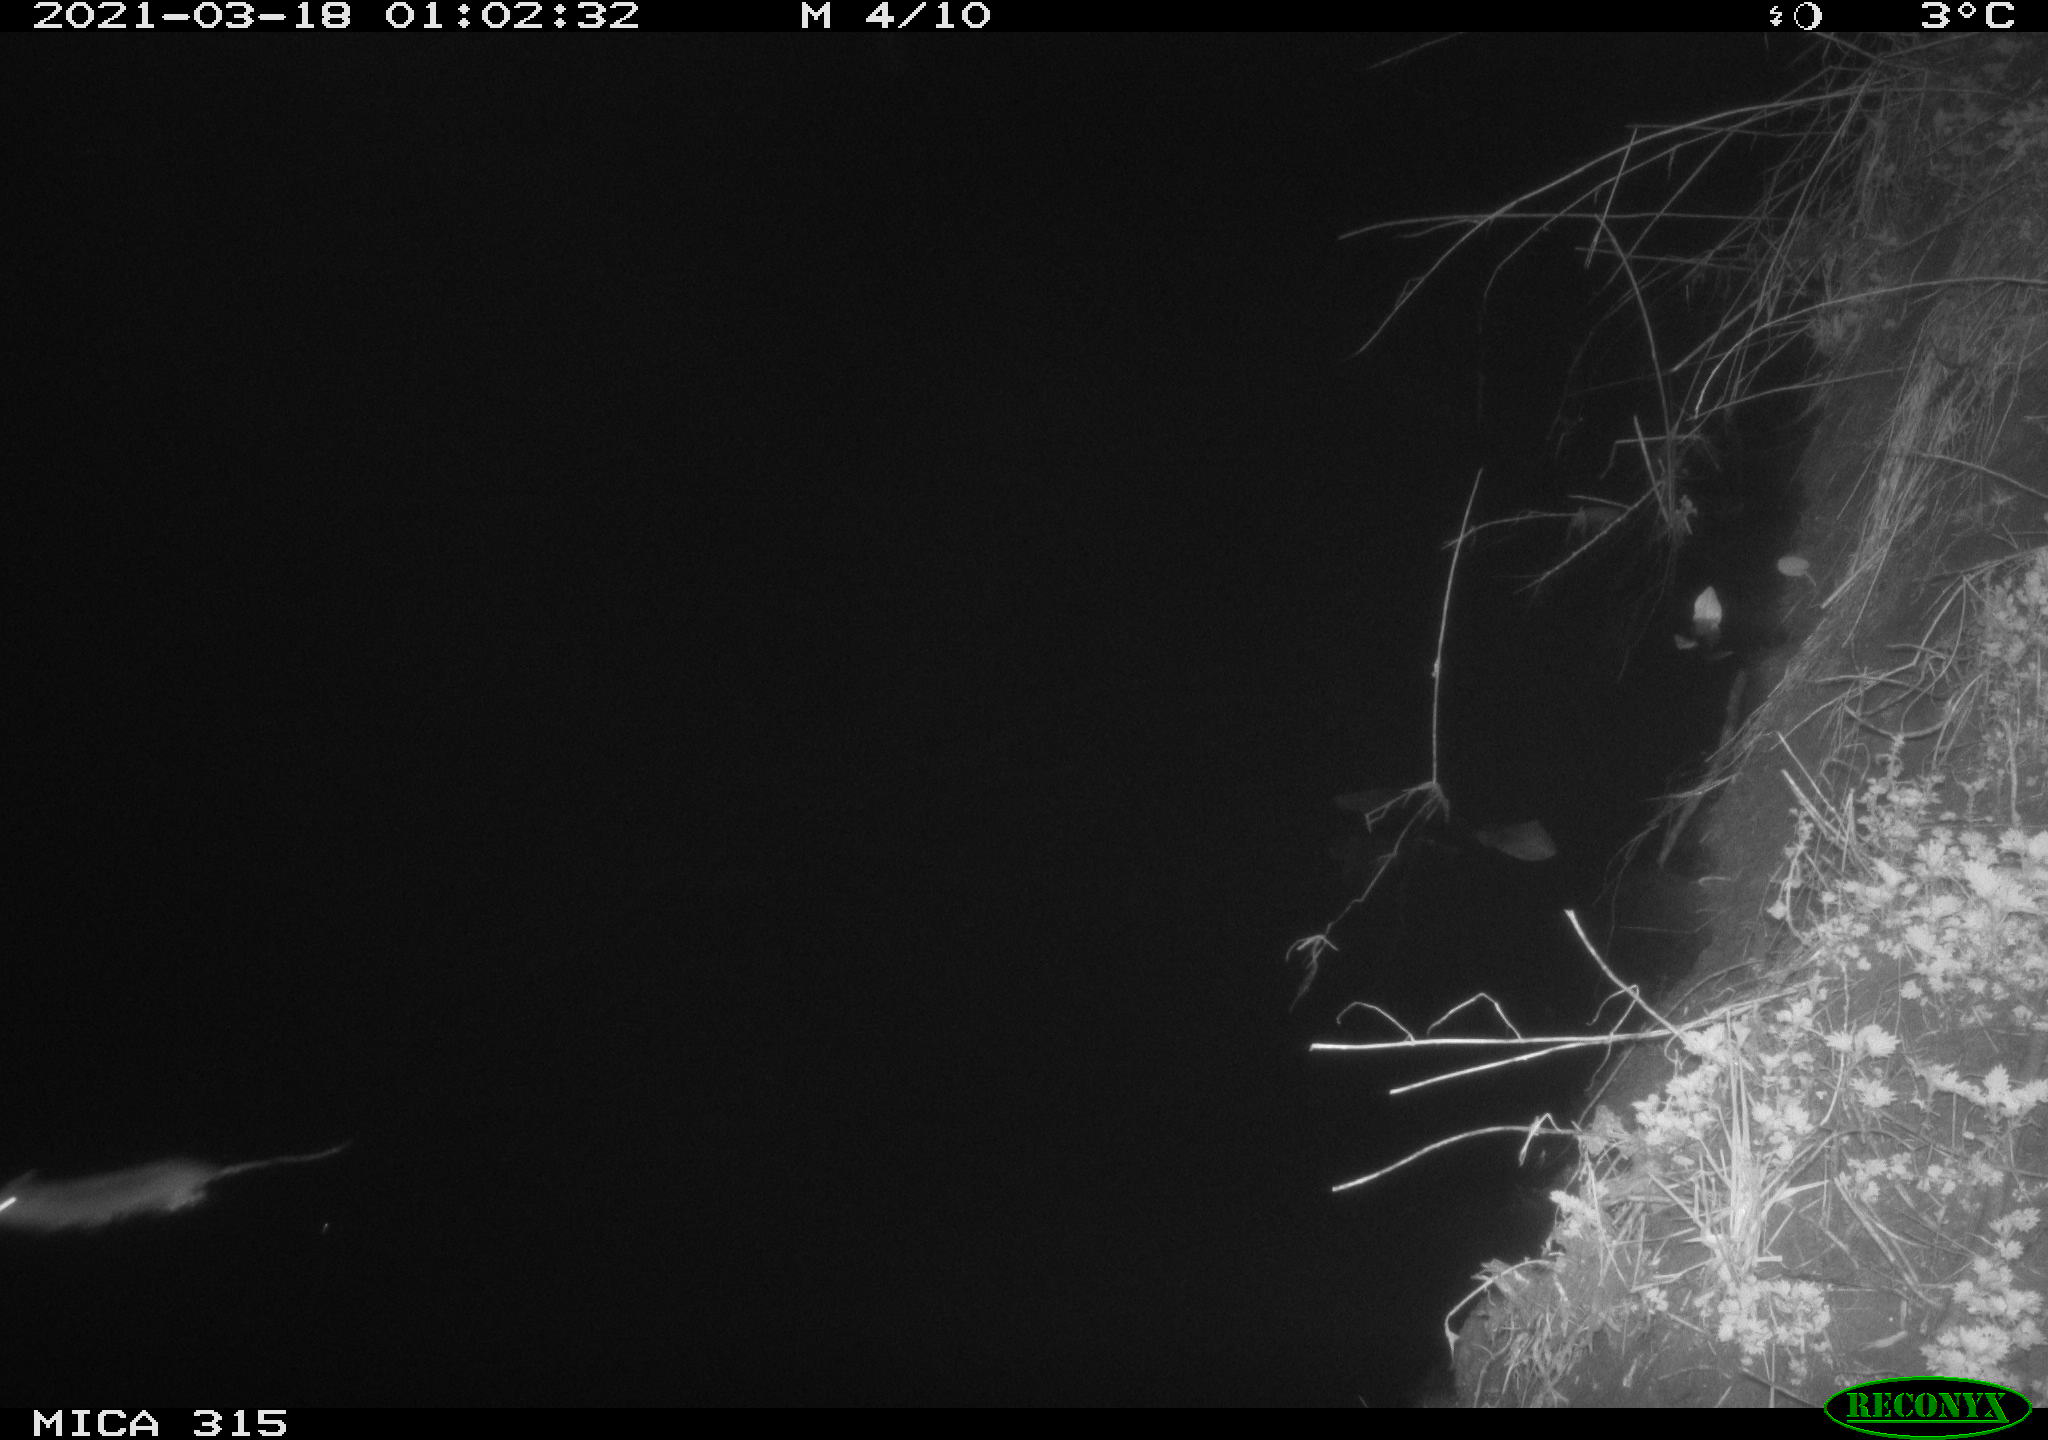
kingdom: Animalia
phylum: Chordata
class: Mammalia
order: Rodentia
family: Muridae
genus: Rattus
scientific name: Rattus norvegicus
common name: Brown rat
